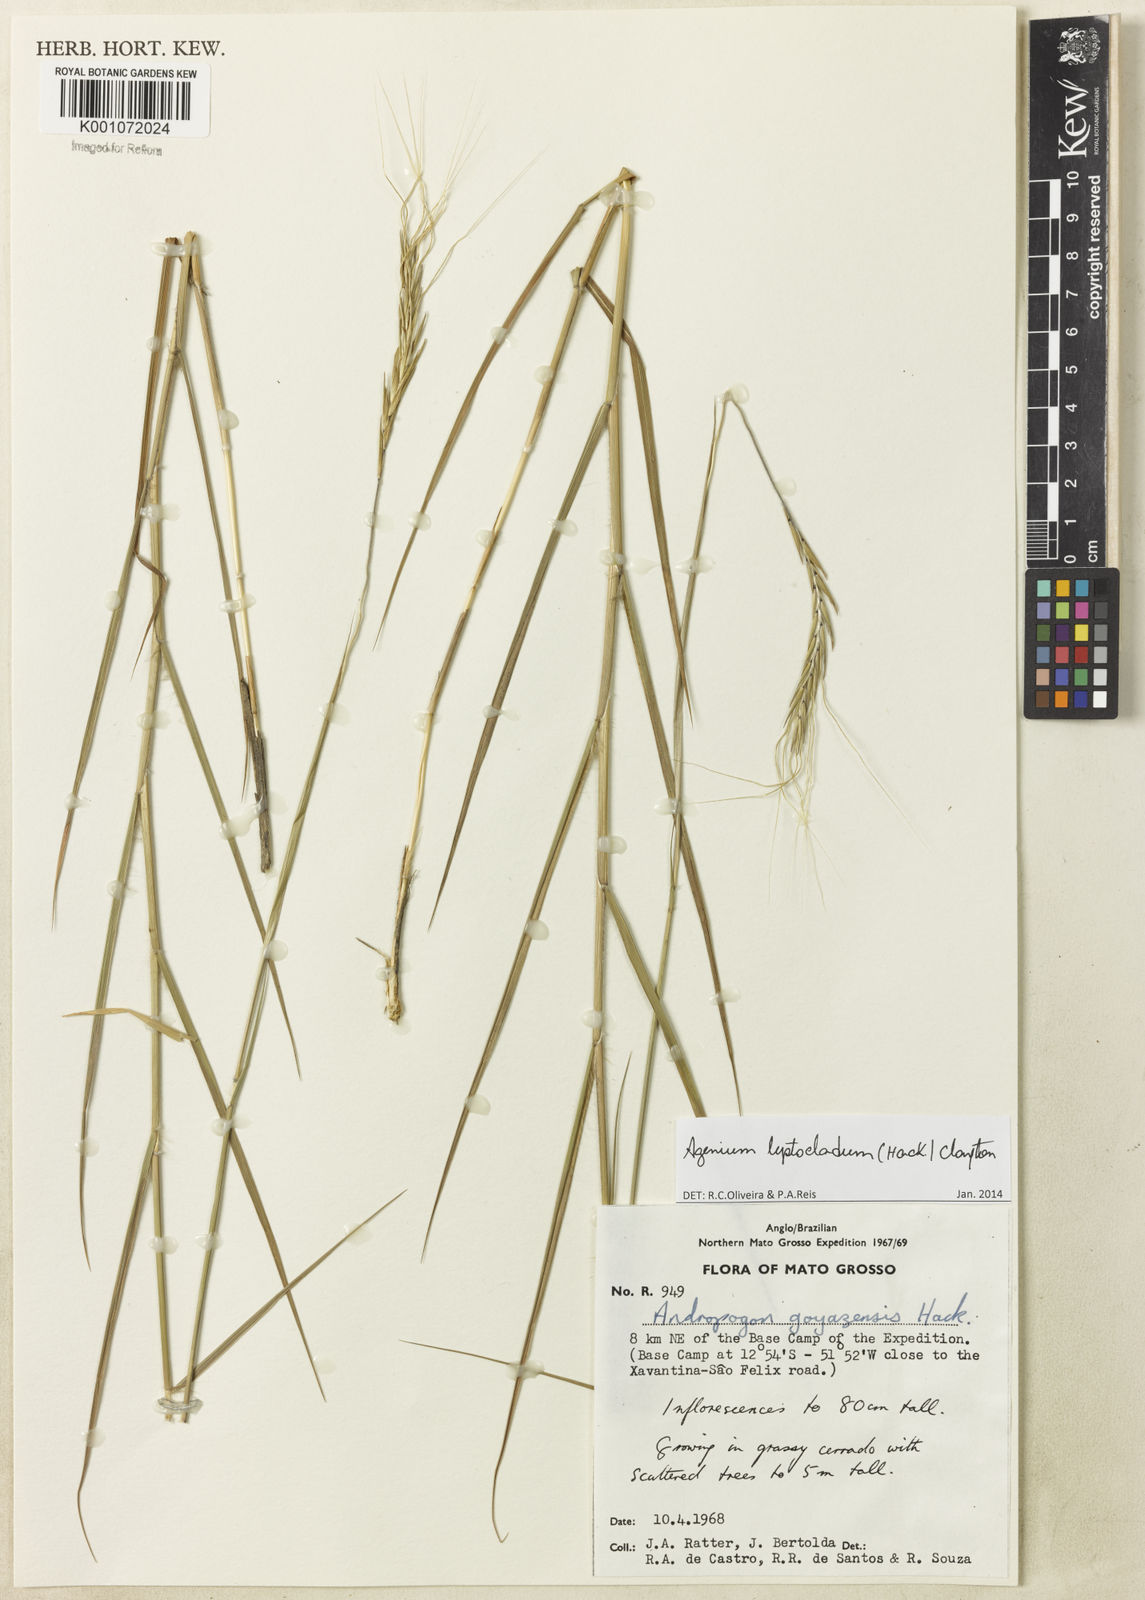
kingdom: Plantae
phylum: Tracheophyta
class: Liliopsida
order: Poales
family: Poaceae
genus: Agenium
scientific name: Agenium leptocladum
